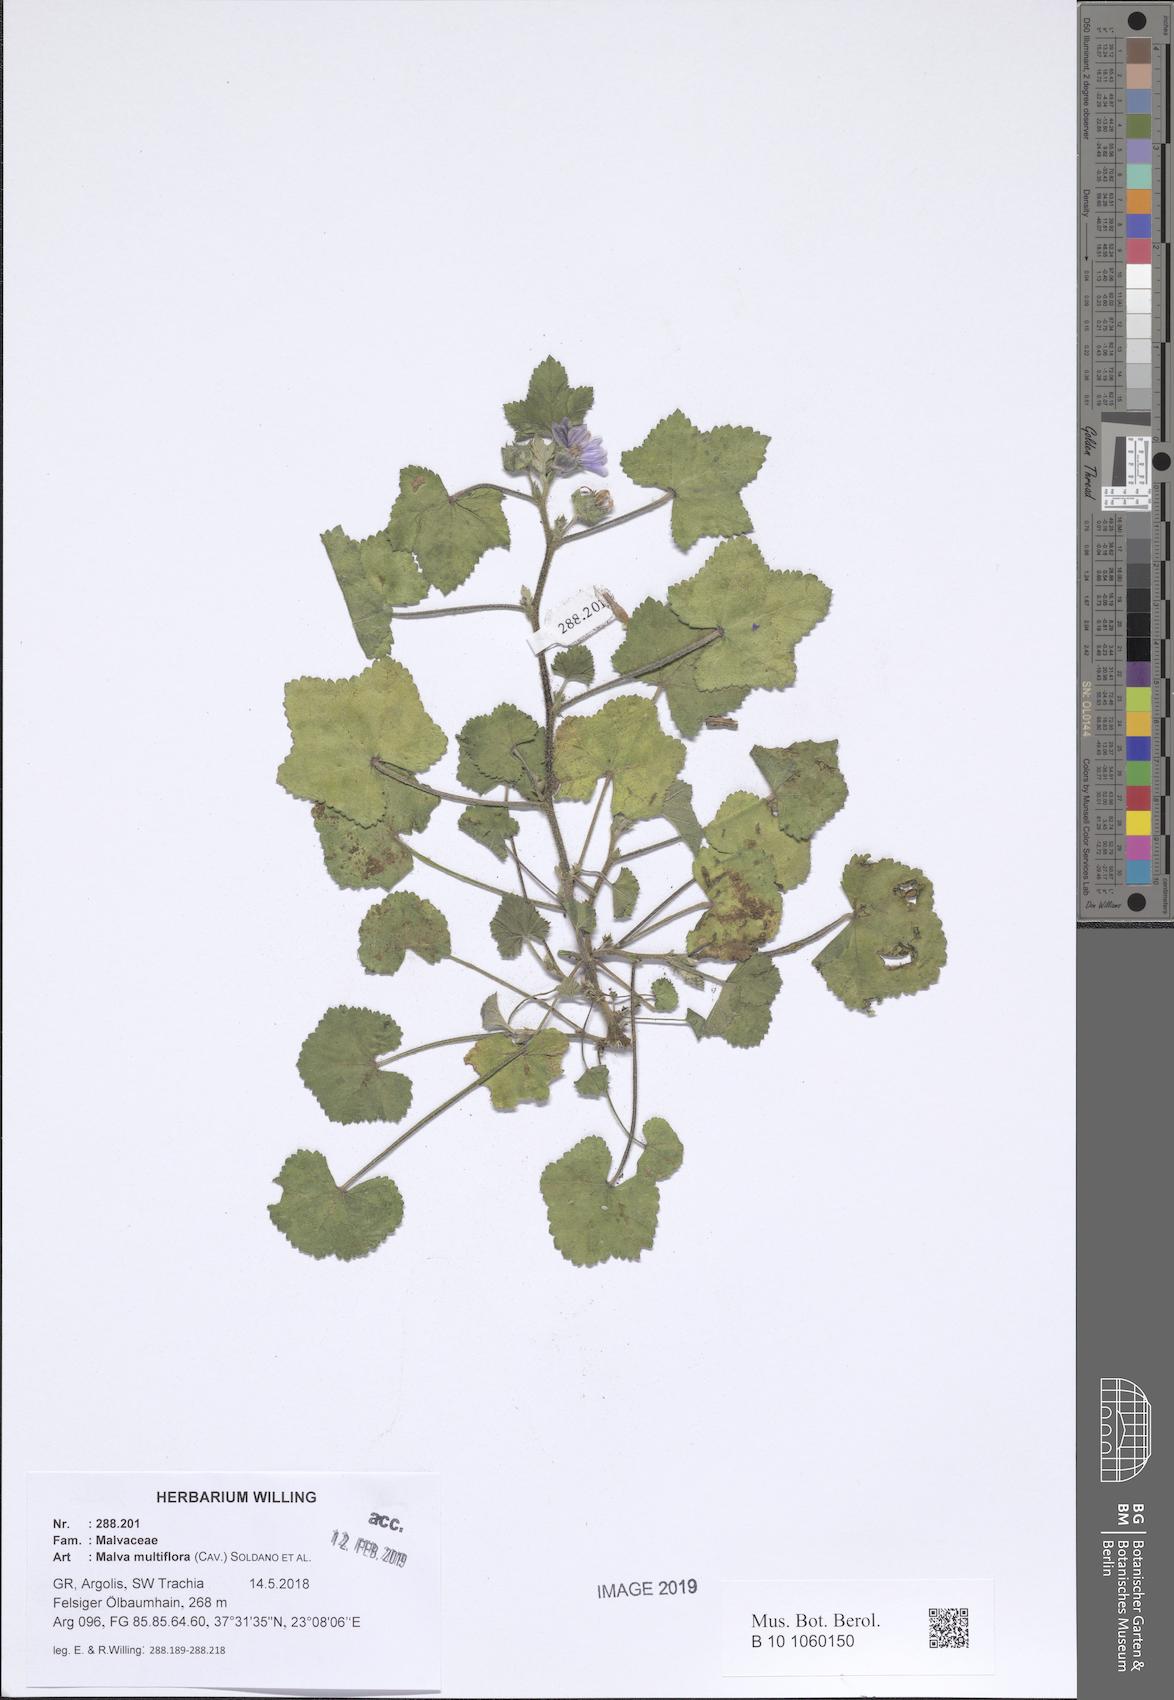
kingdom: Plantae
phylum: Tracheophyta
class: Magnoliopsida
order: Malvales
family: Malvaceae
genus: Malva
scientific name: Malva multiflora
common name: Cheeseweed
